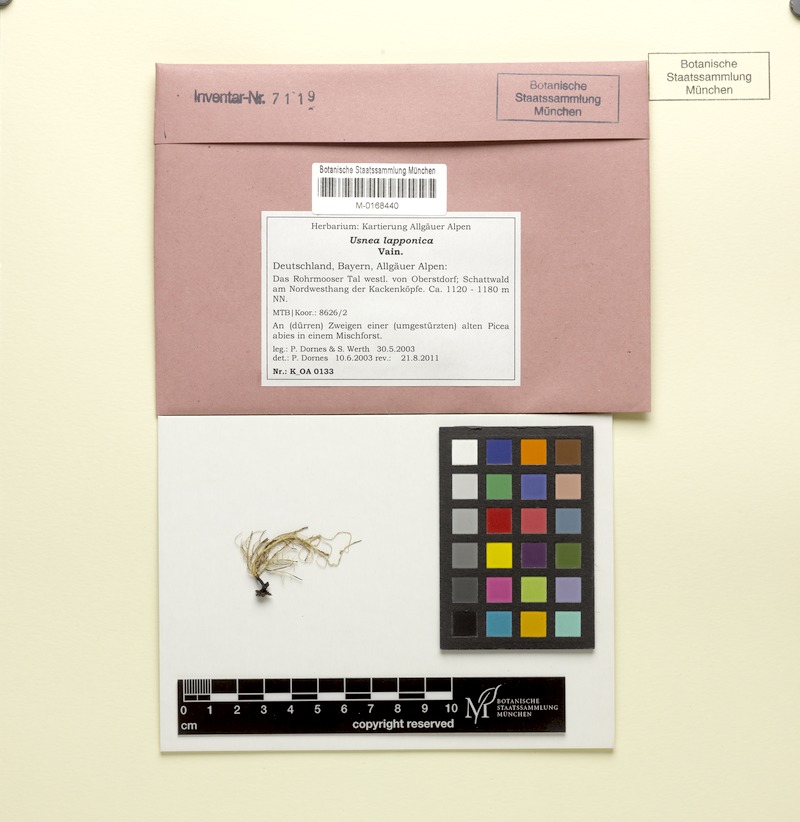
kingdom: Fungi
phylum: Ascomycota
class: Lecanoromycetes
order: Lecanorales
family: Parmeliaceae
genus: Usnea
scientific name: Usnea lapponica
